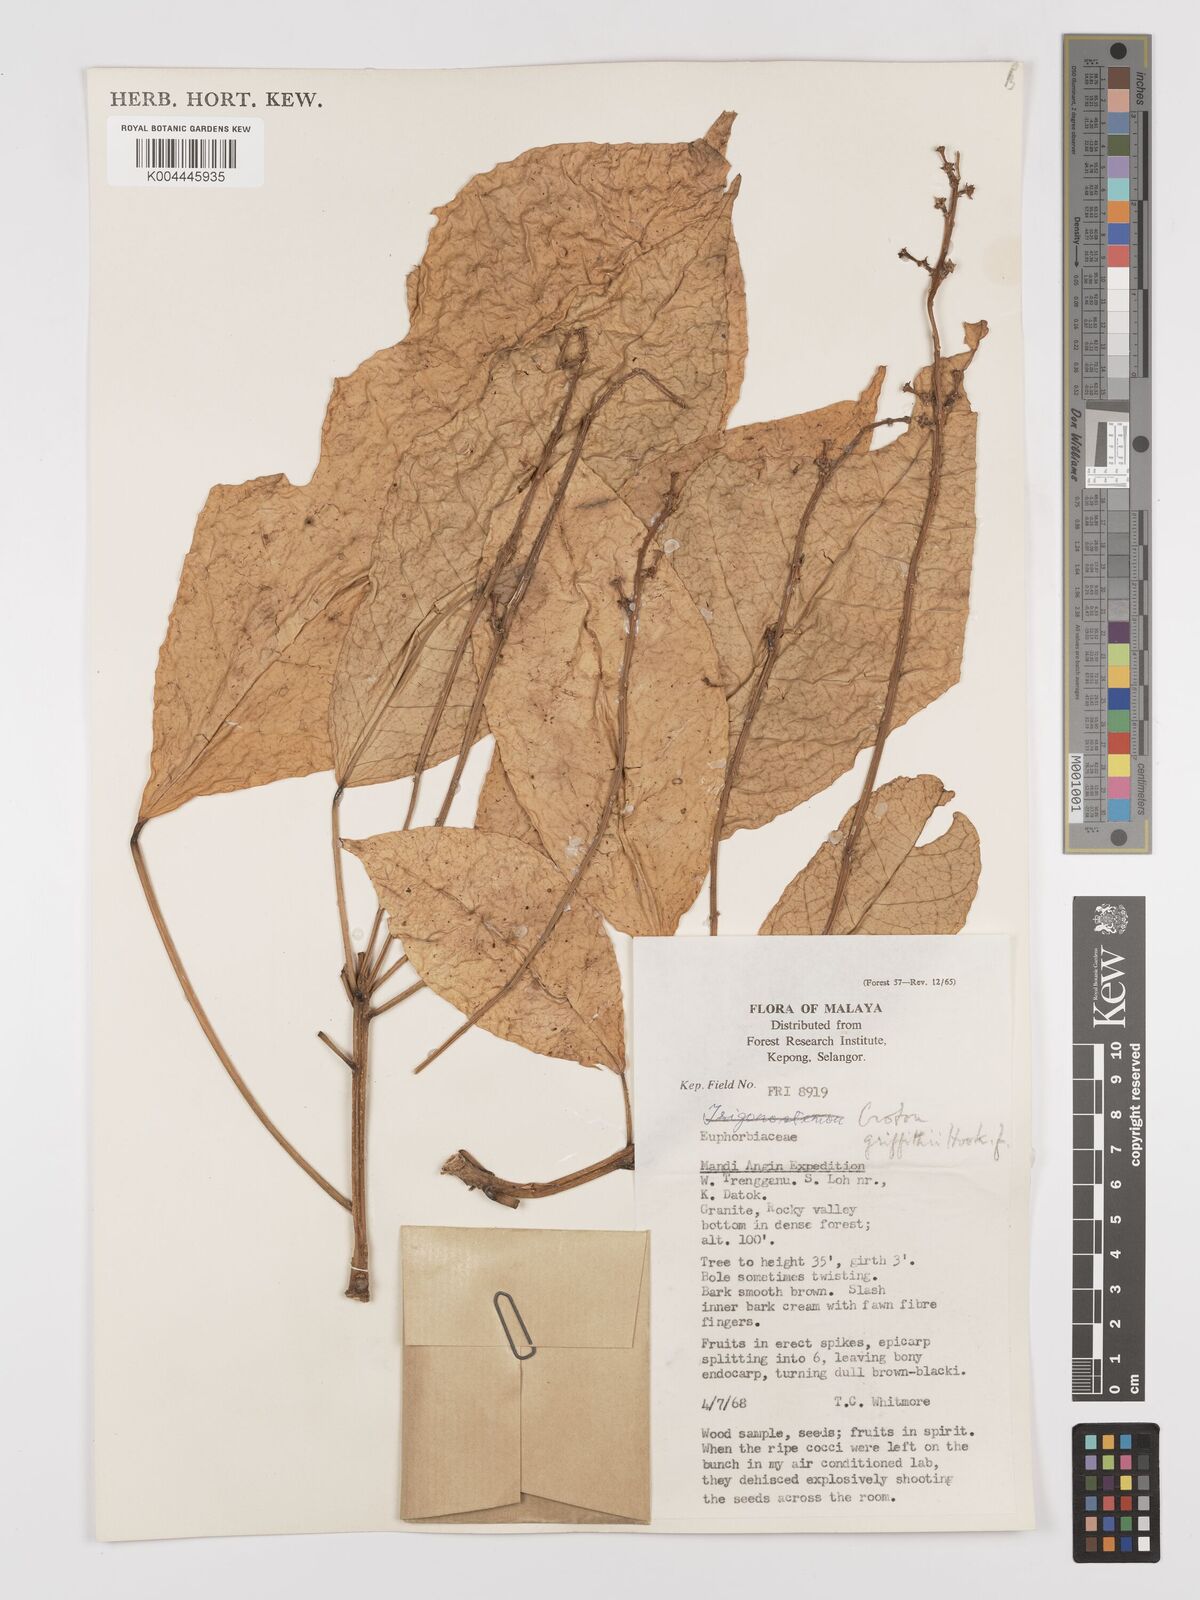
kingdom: Plantae
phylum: Tracheophyta
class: Magnoliopsida
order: Malpighiales
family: Euphorbiaceae
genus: Croton
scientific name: Croton griffithii
